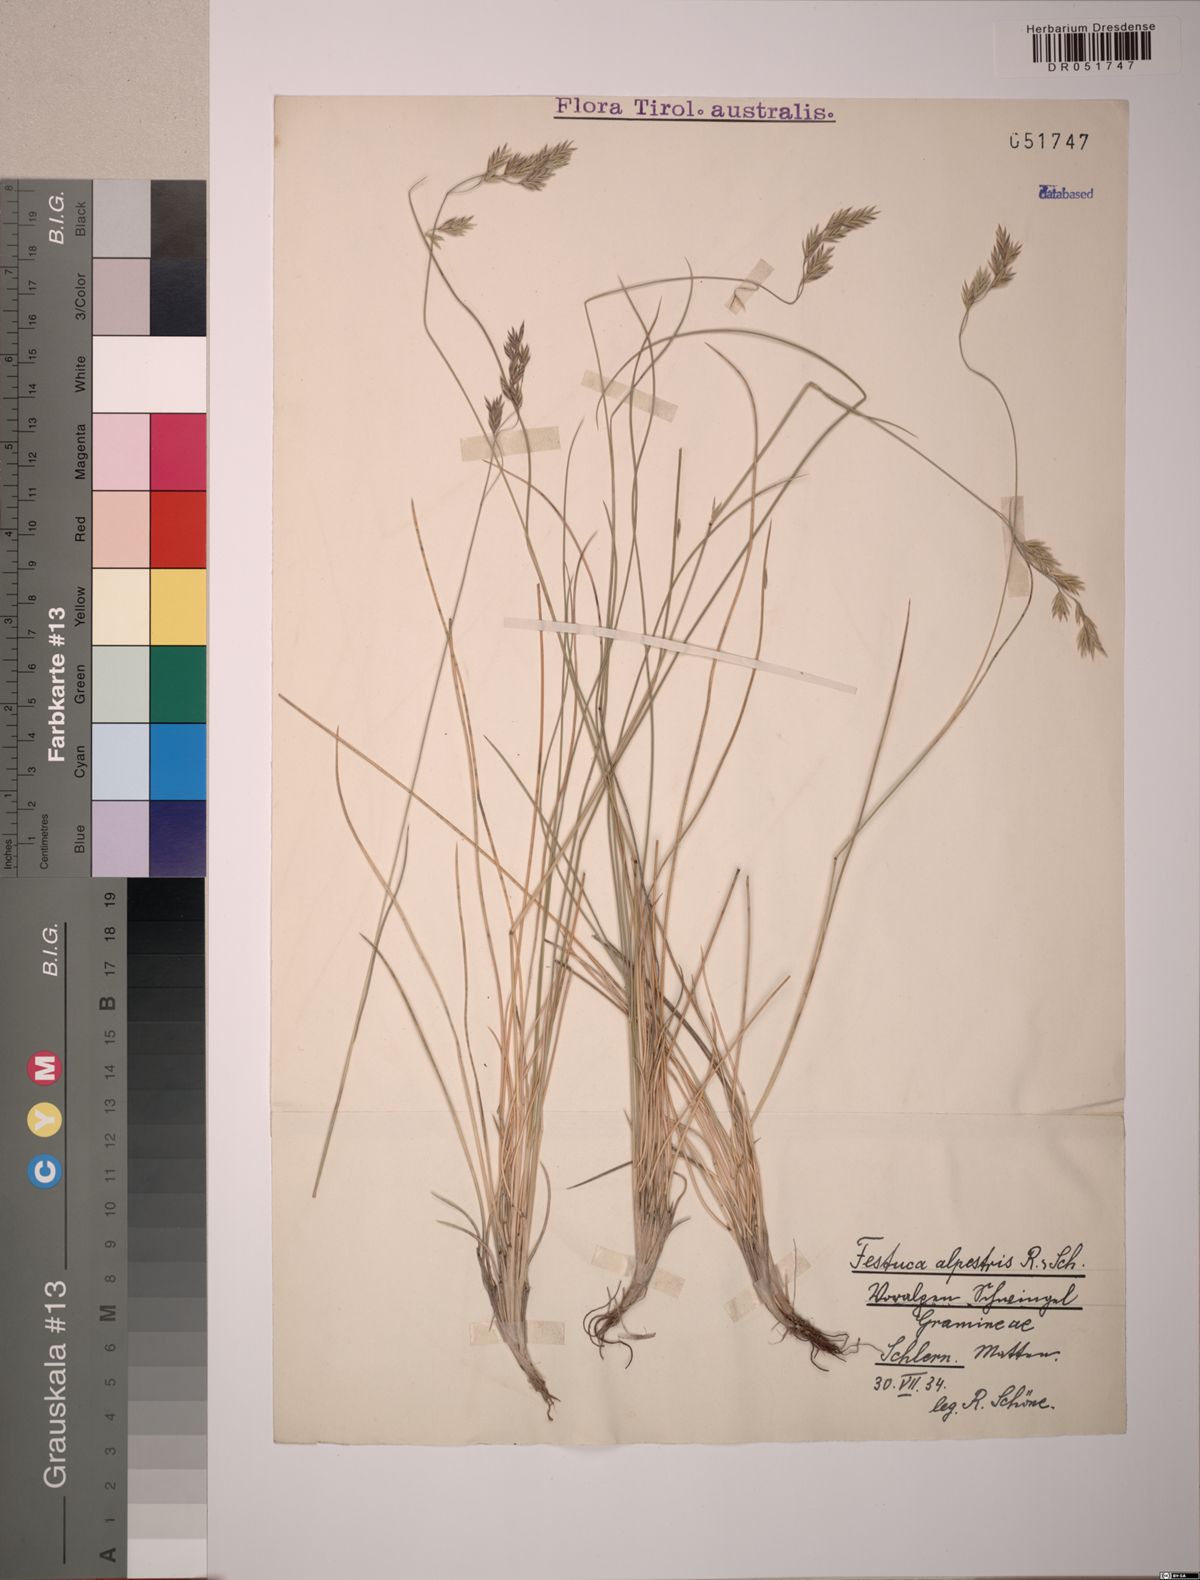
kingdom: Plantae
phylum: Tracheophyta
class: Liliopsida
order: Poales
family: Poaceae
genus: Festuca
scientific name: Festuca alpestris
